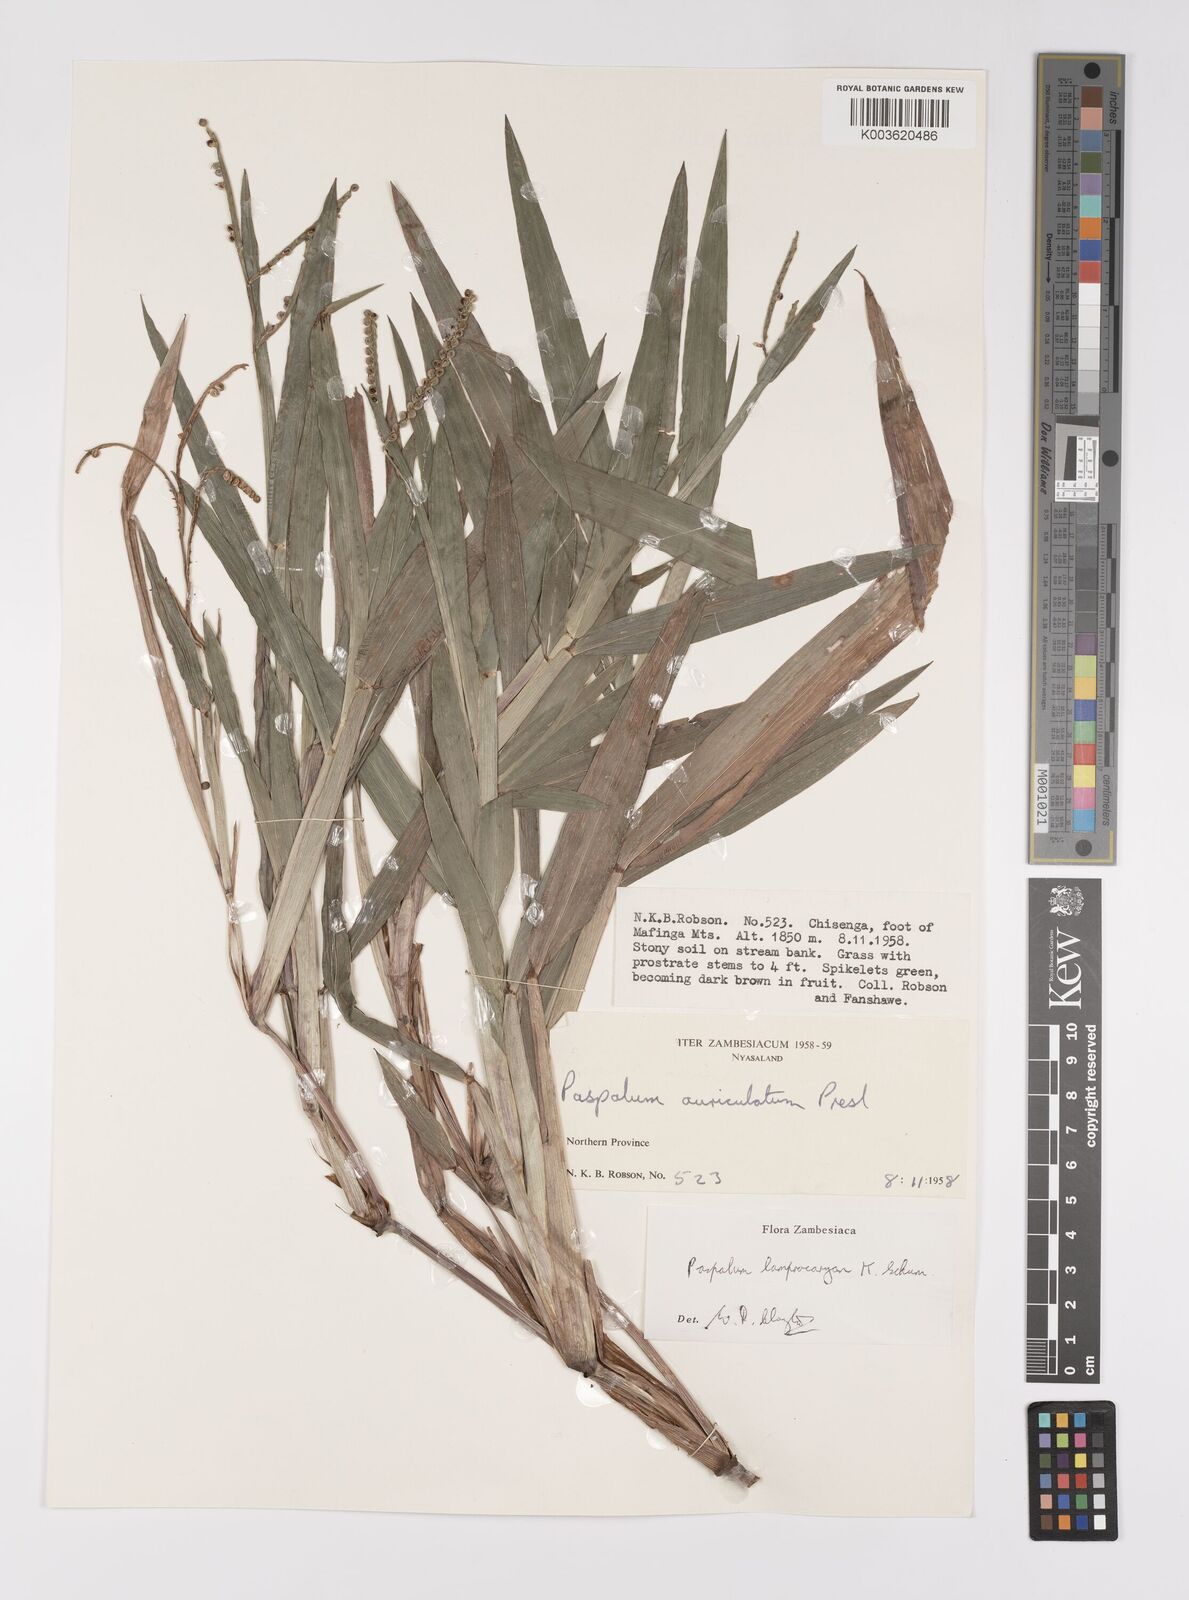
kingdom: Plantae
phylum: Tracheophyta
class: Liliopsida
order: Poales
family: Poaceae
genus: Paspalum
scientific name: Paspalum lamprocaryon
